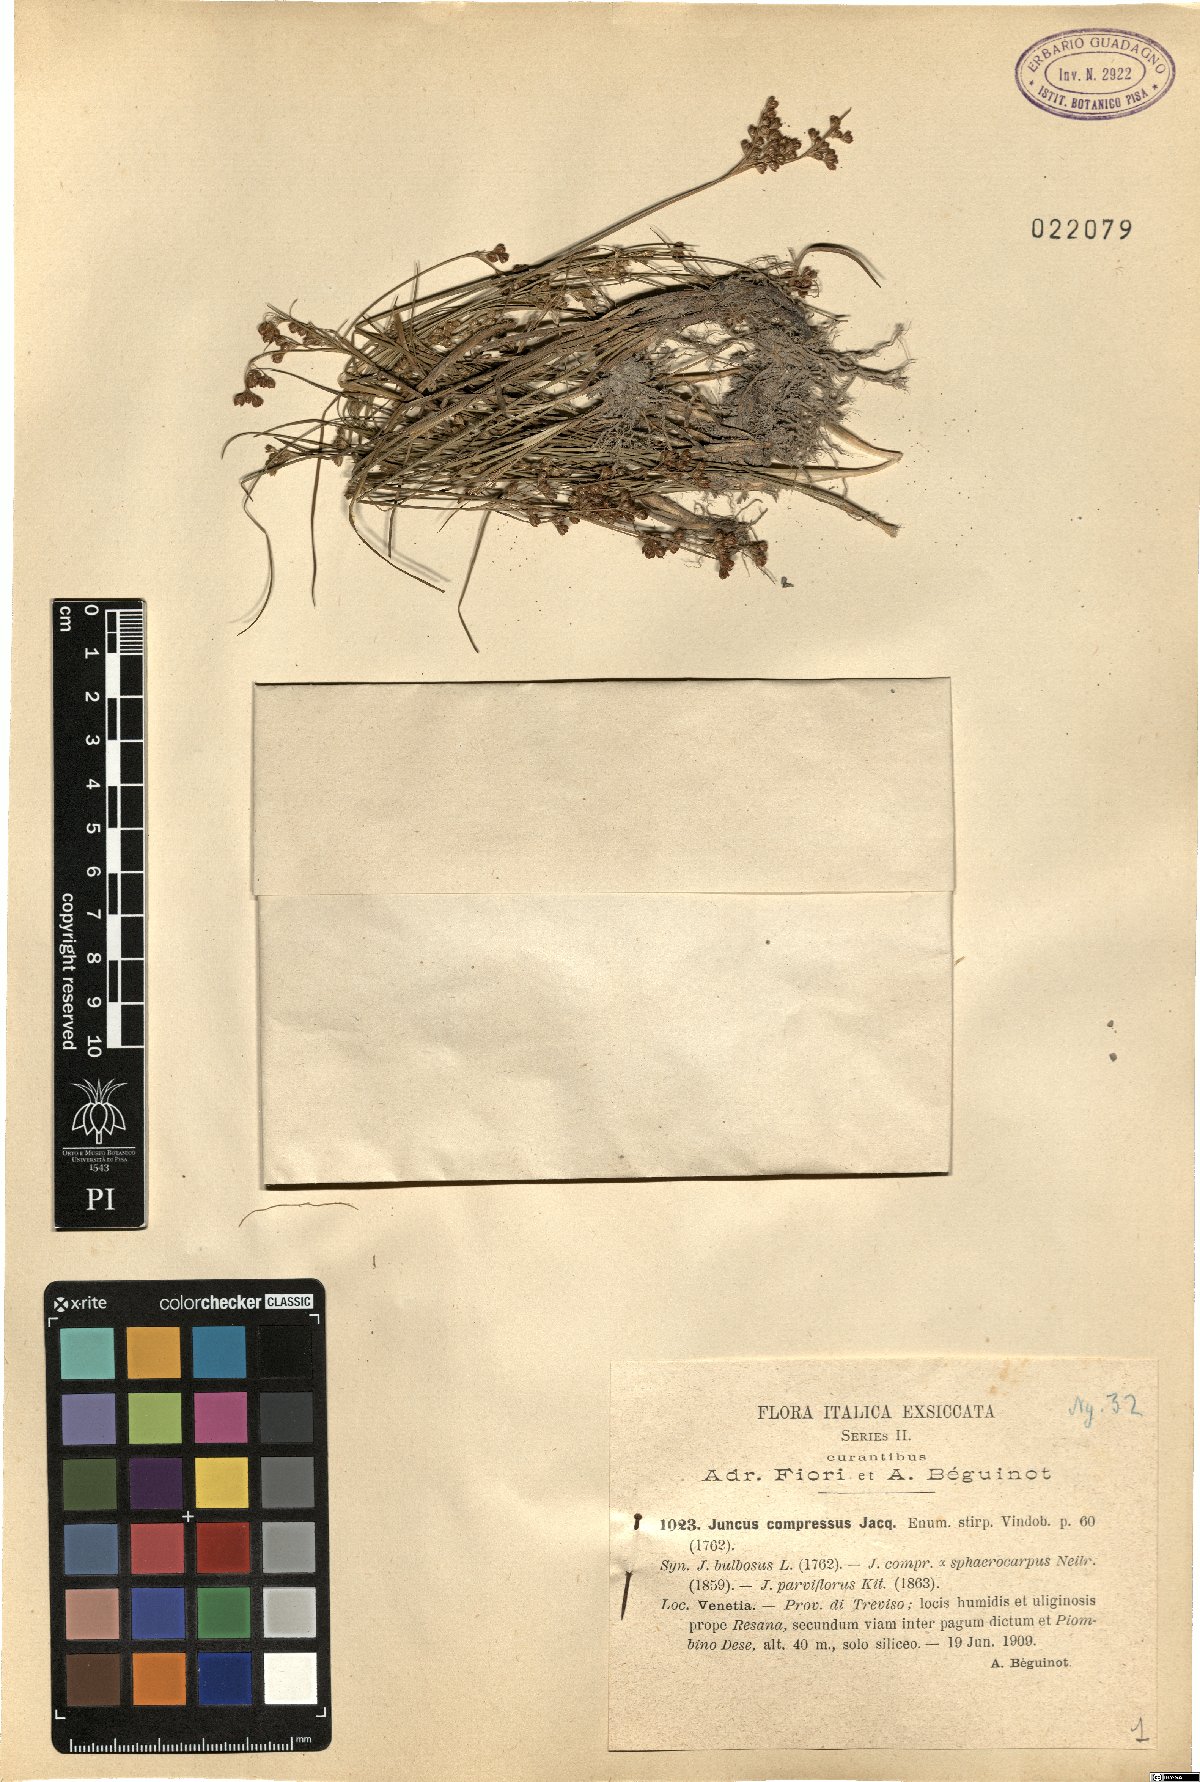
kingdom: Plantae
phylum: Tracheophyta
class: Liliopsida
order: Poales
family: Juncaceae
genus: Juncus
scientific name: Juncus compressus
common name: Round-fruited rush
